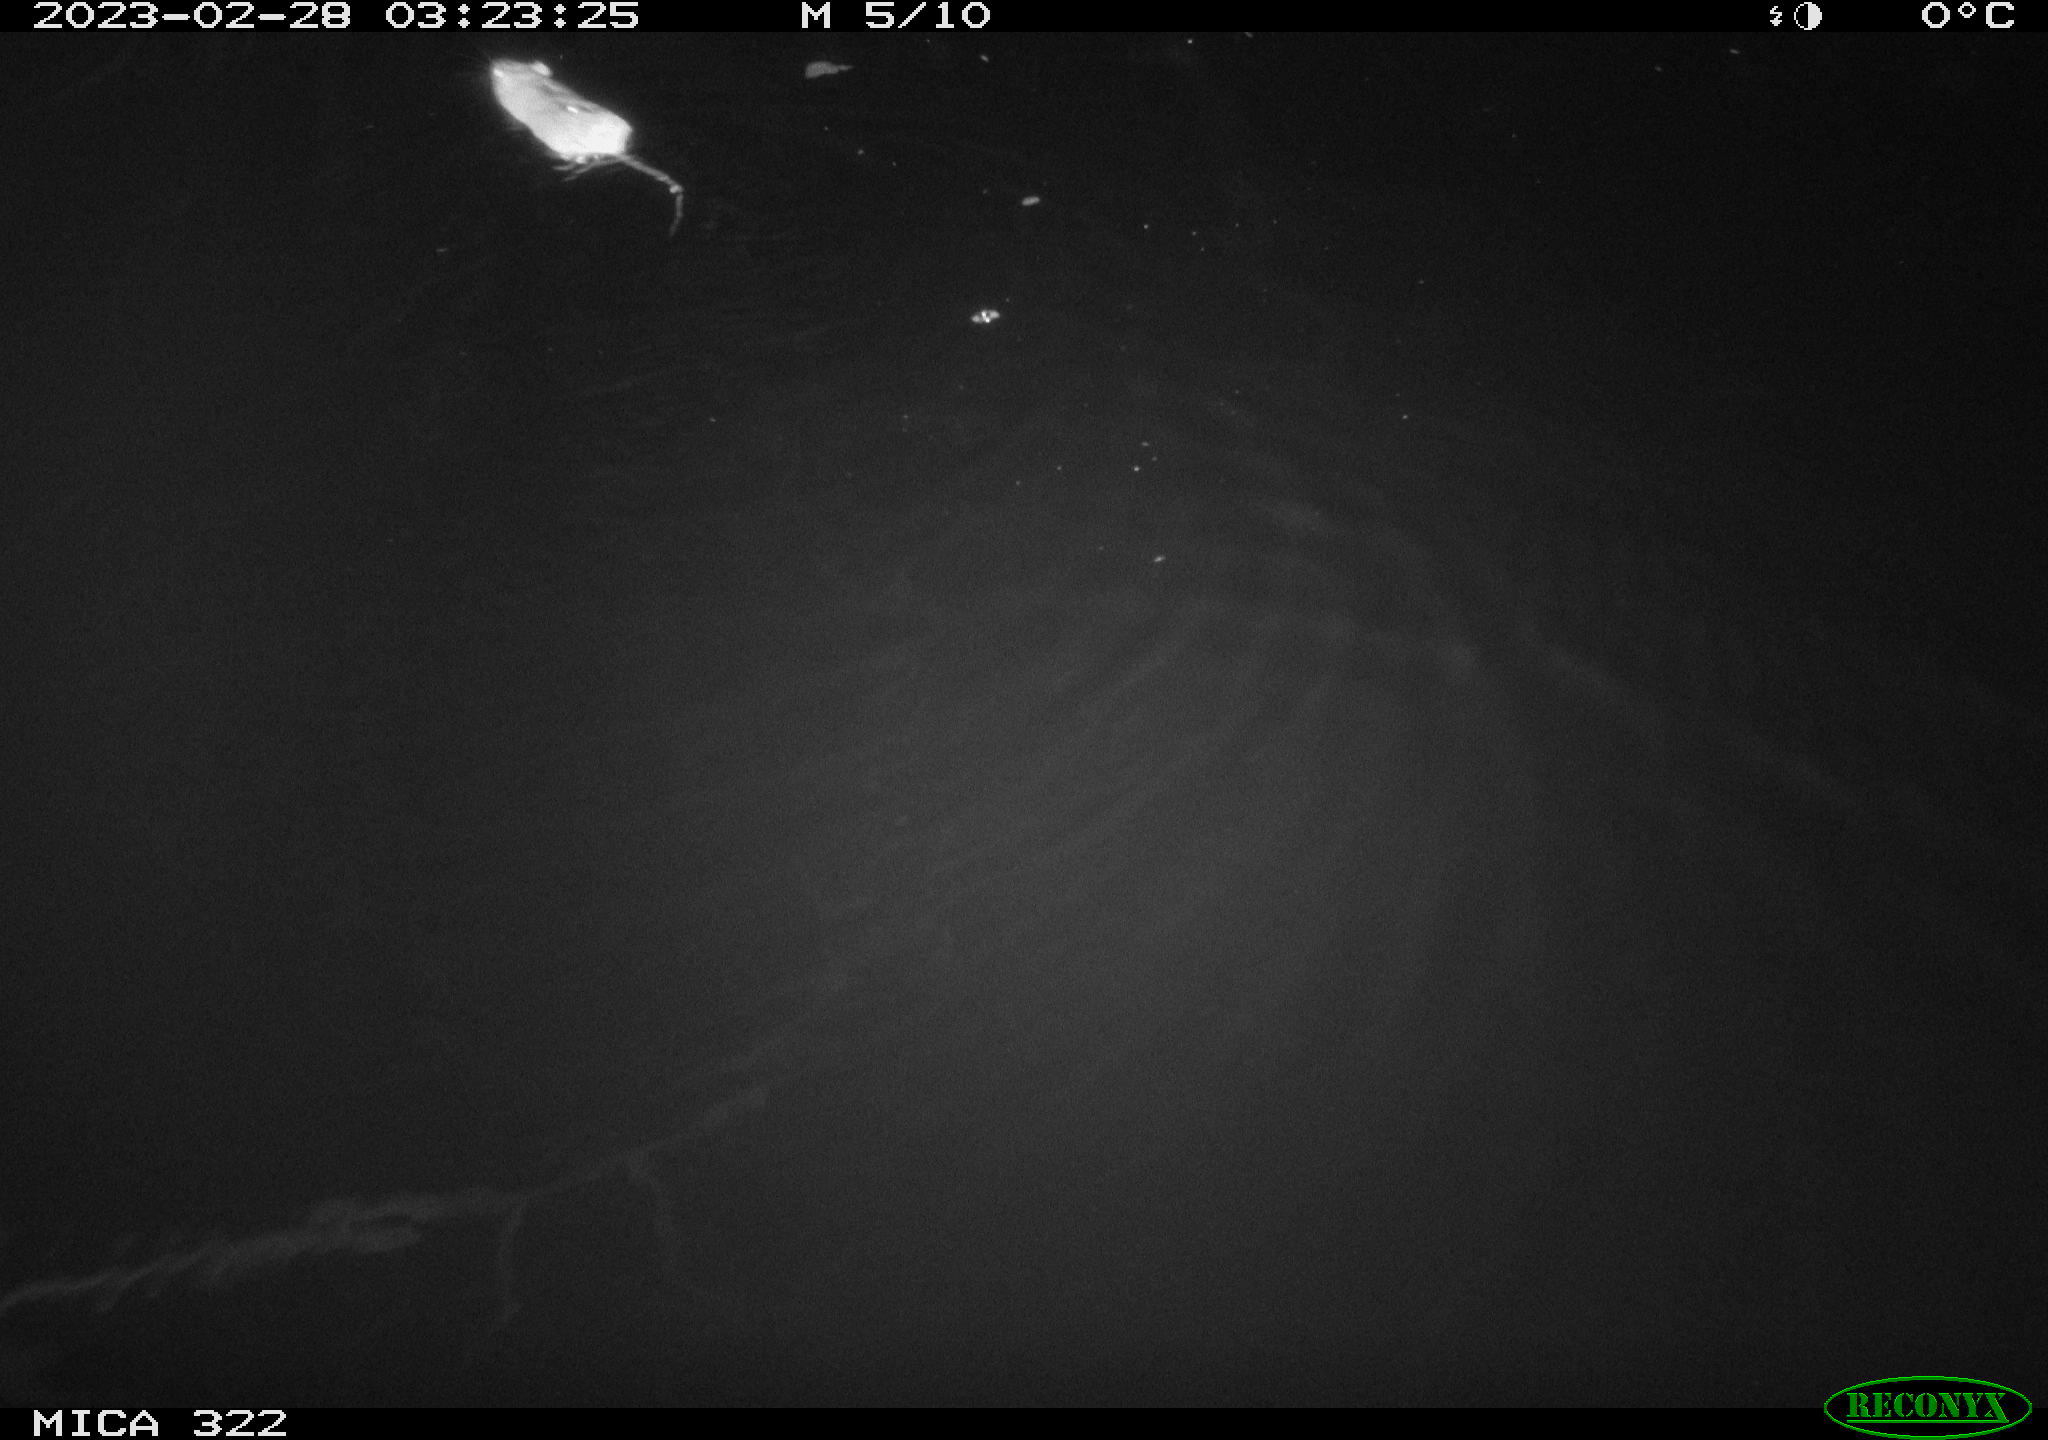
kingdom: Animalia
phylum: Chordata
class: Mammalia
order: Rodentia
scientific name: Rodentia
